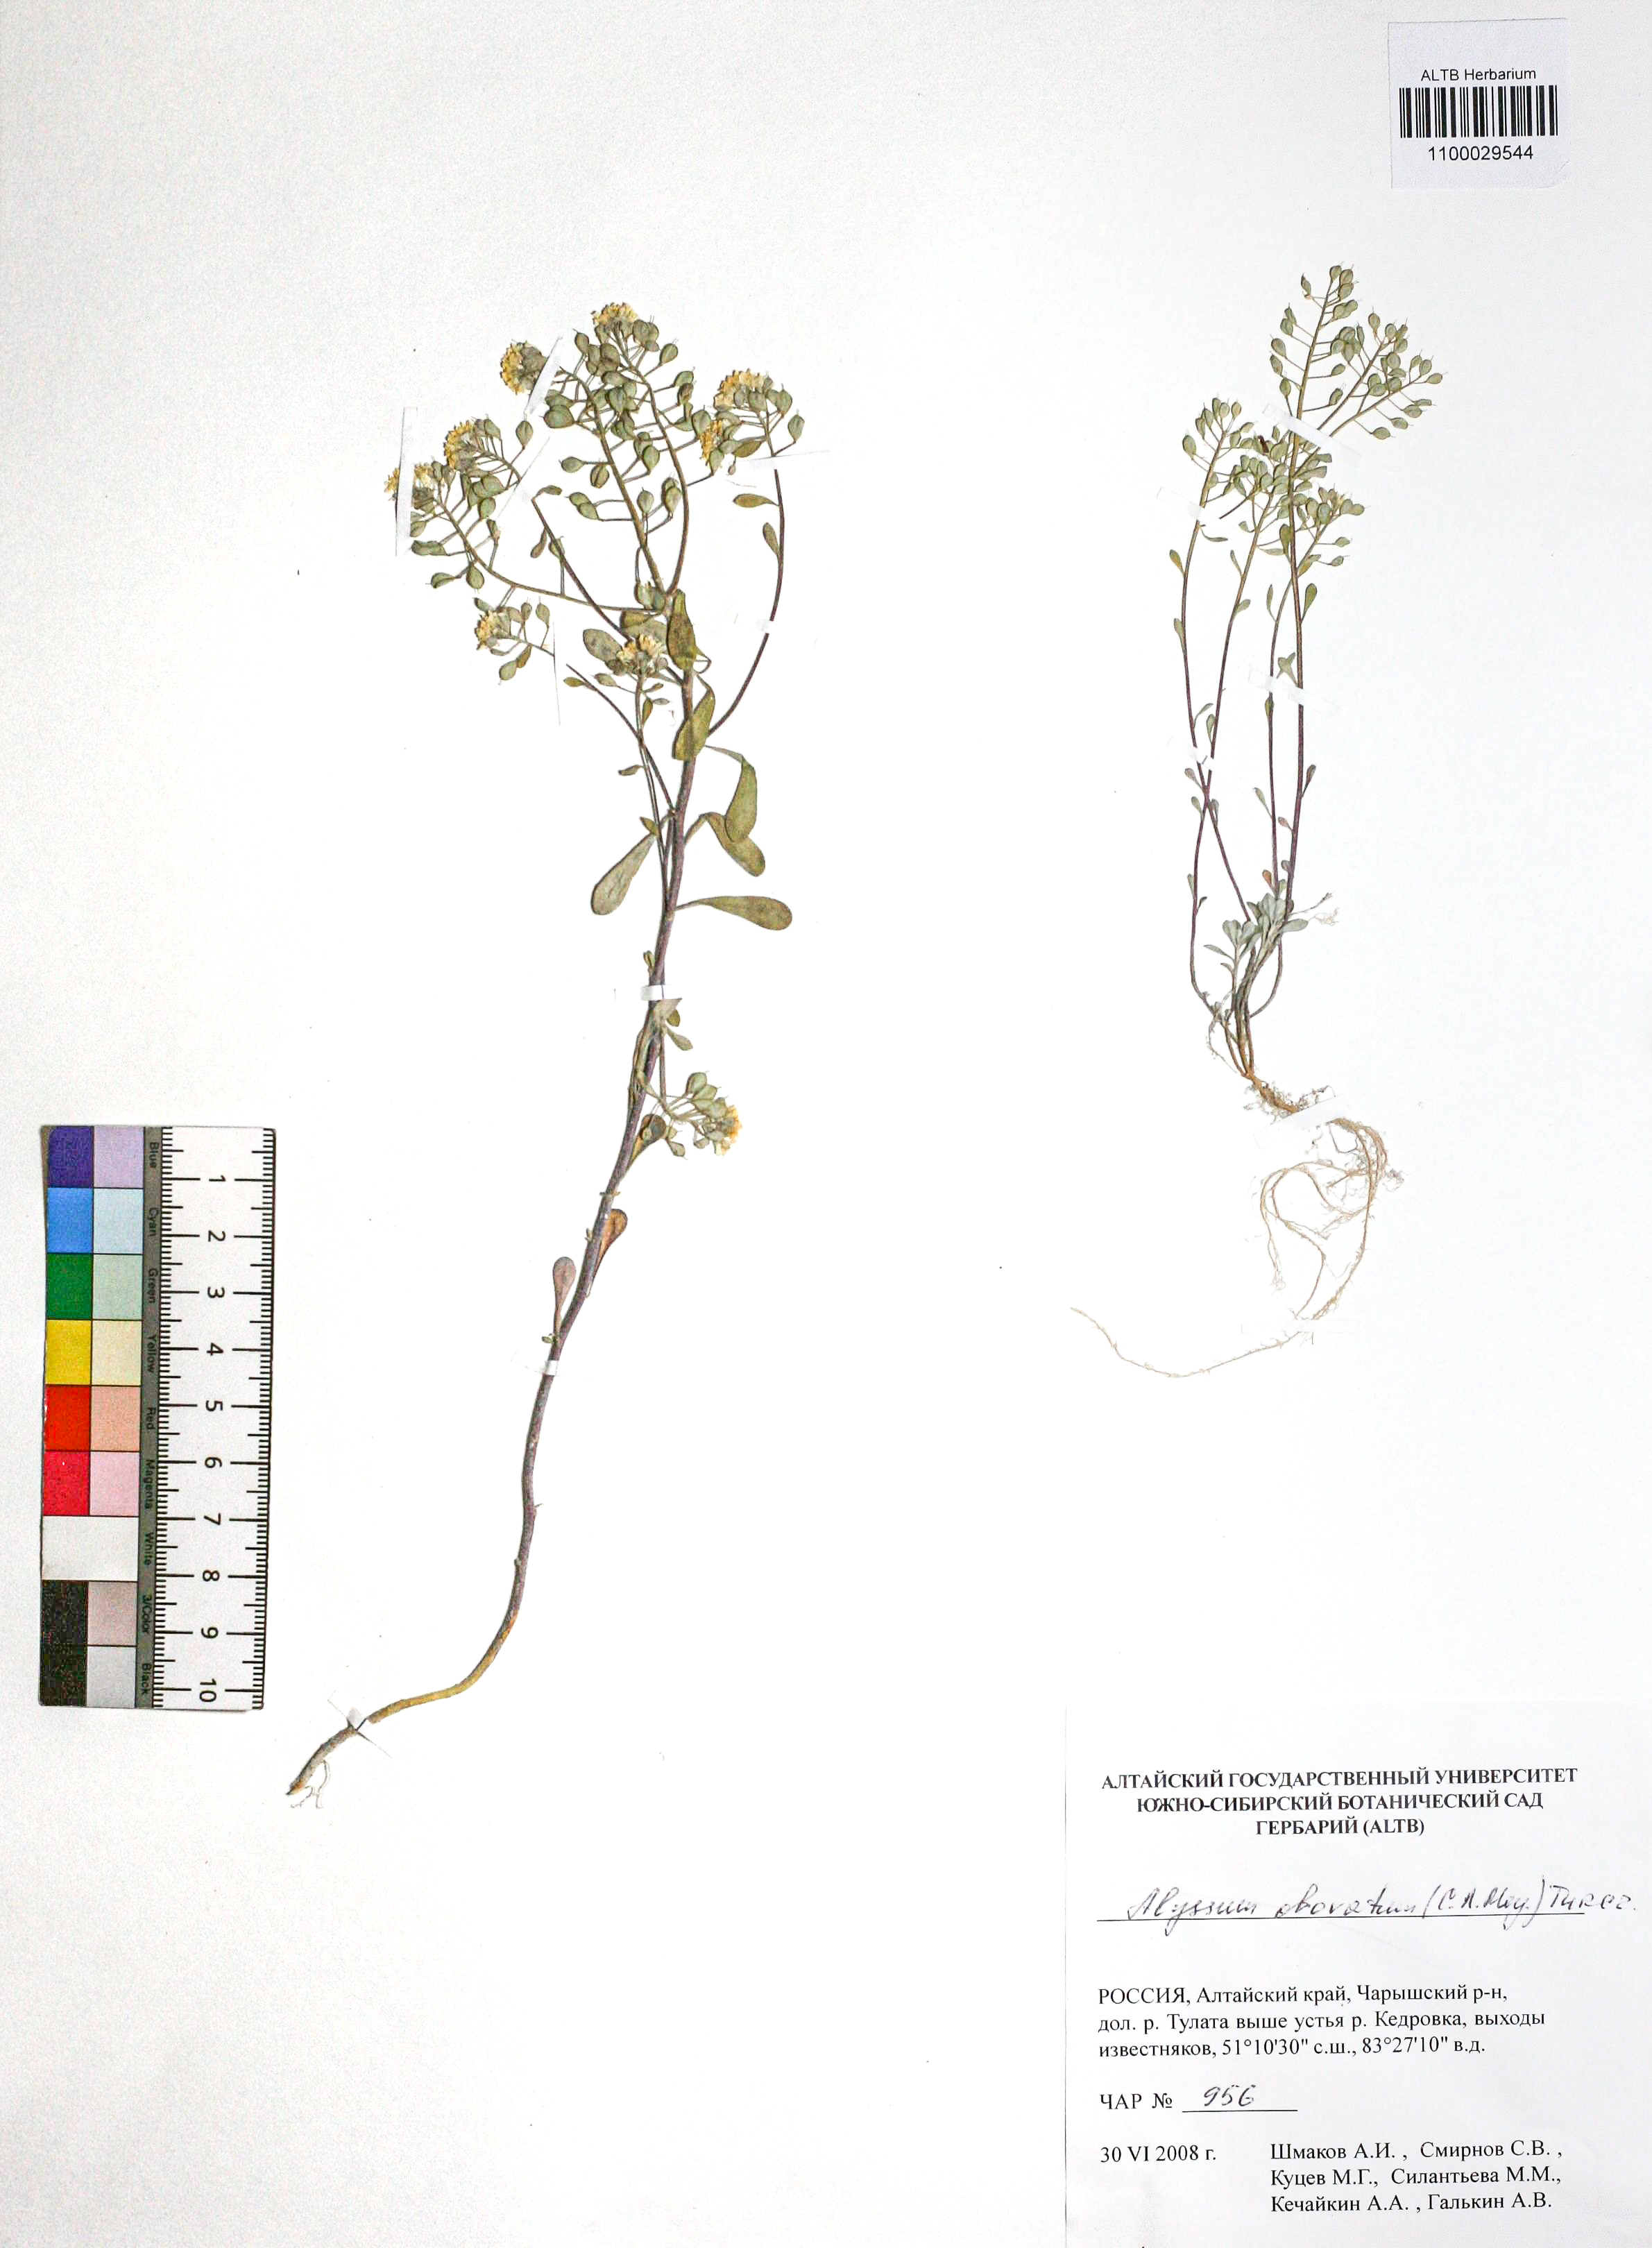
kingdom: Plantae
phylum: Tracheophyta
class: Magnoliopsida
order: Brassicales
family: Brassicaceae
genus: Odontarrhena
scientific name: Odontarrhena obovata
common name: American alyssum
